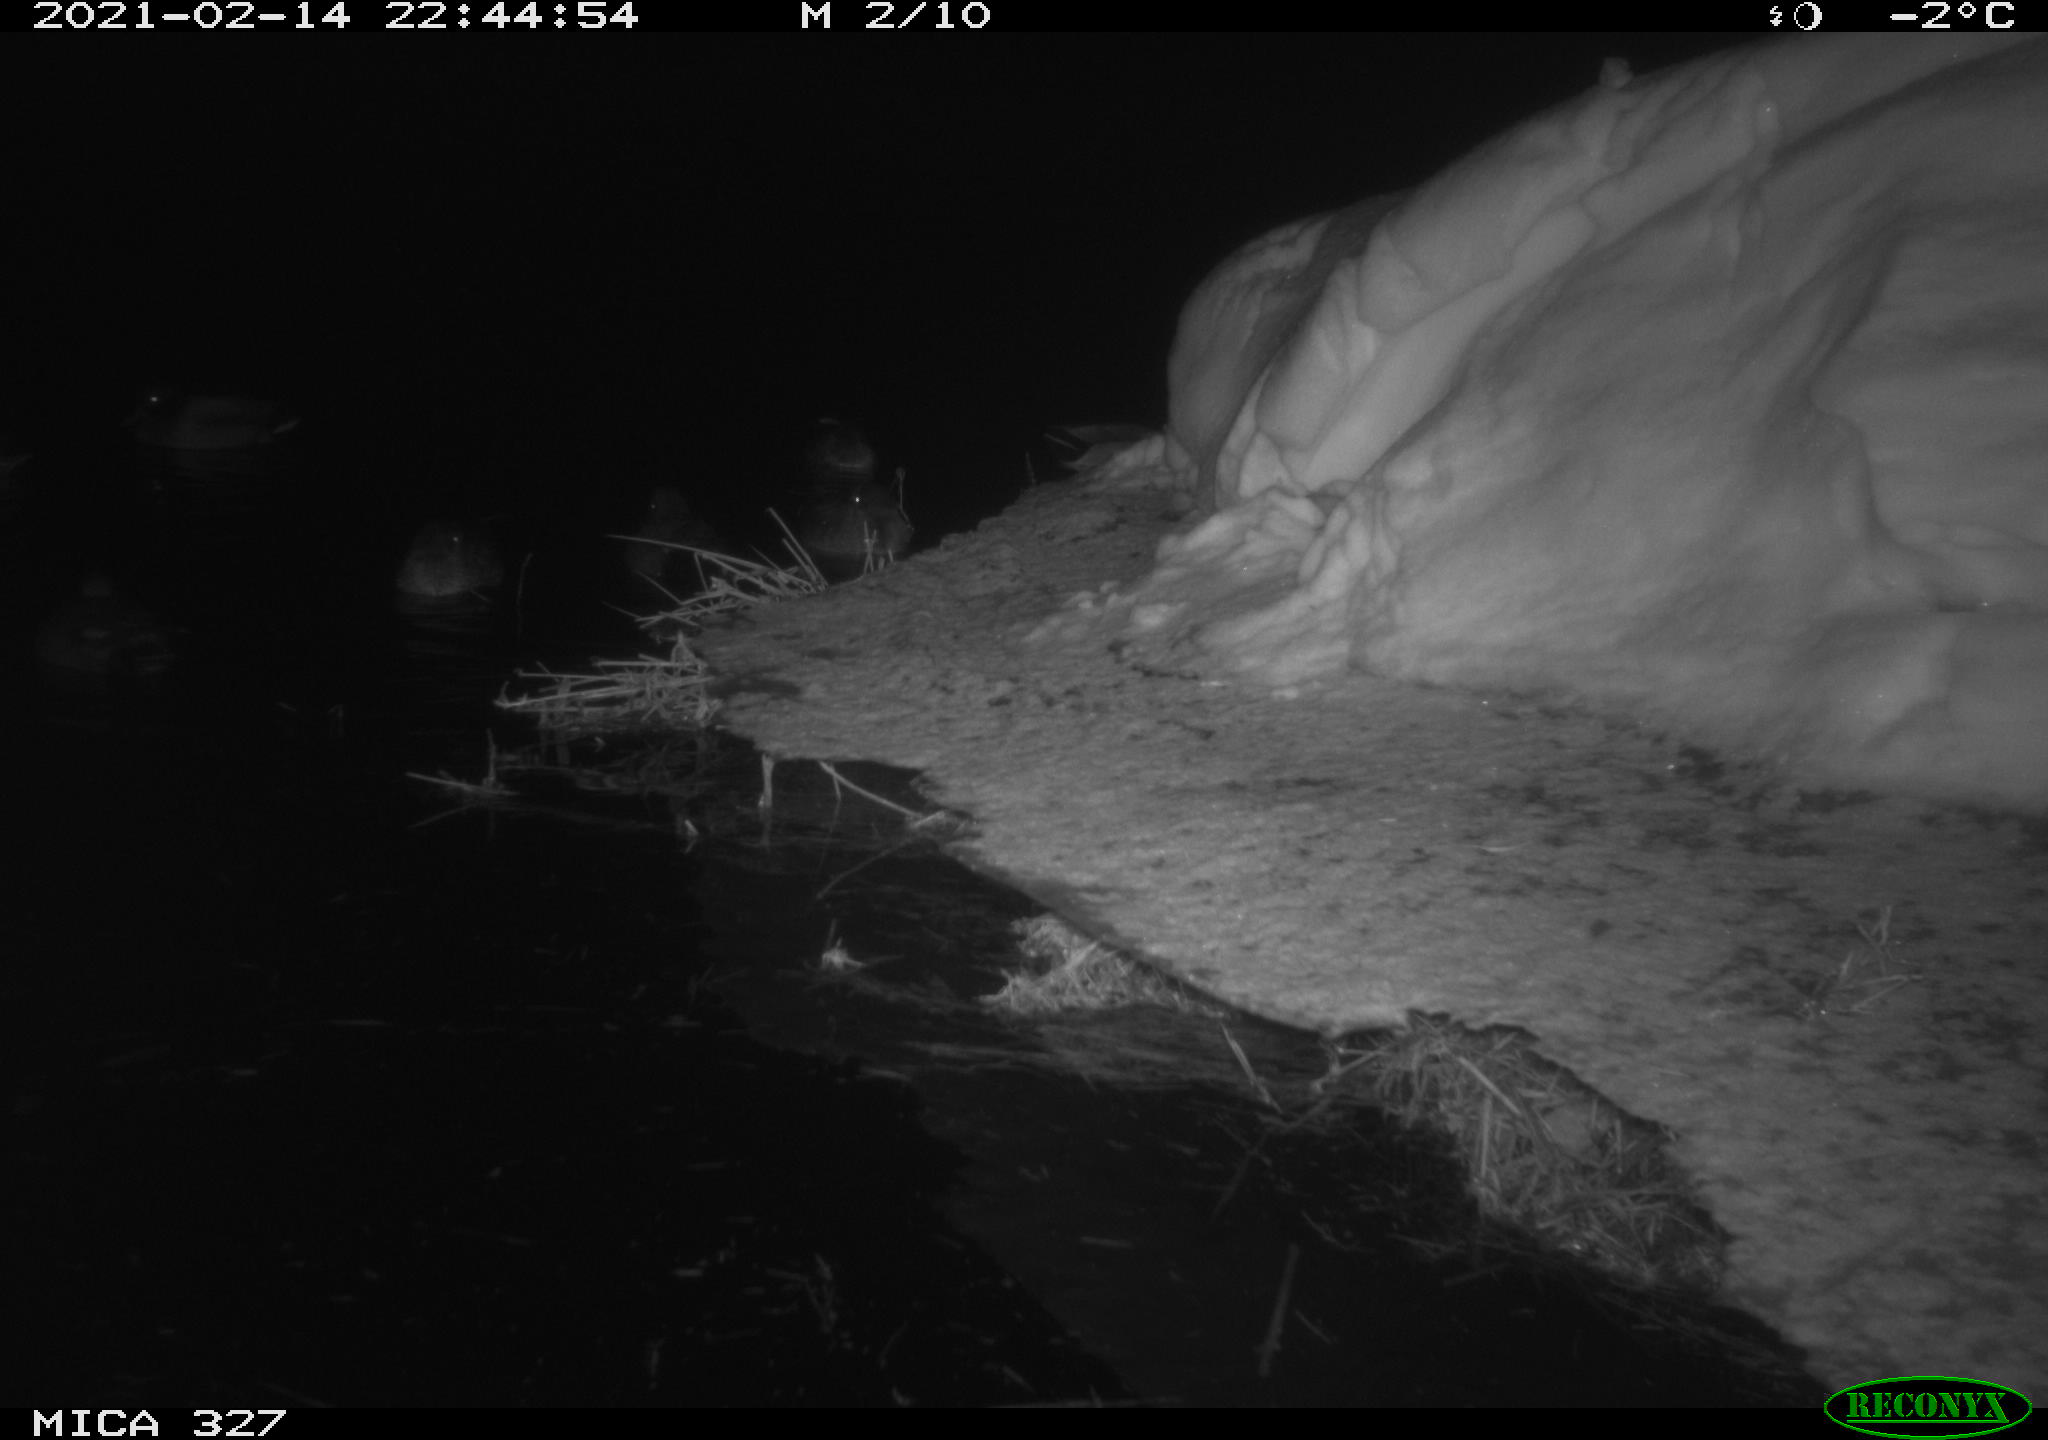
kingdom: Animalia
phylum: Chordata
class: Aves
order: Anseriformes
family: Anatidae
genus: Anas
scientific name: Anas
